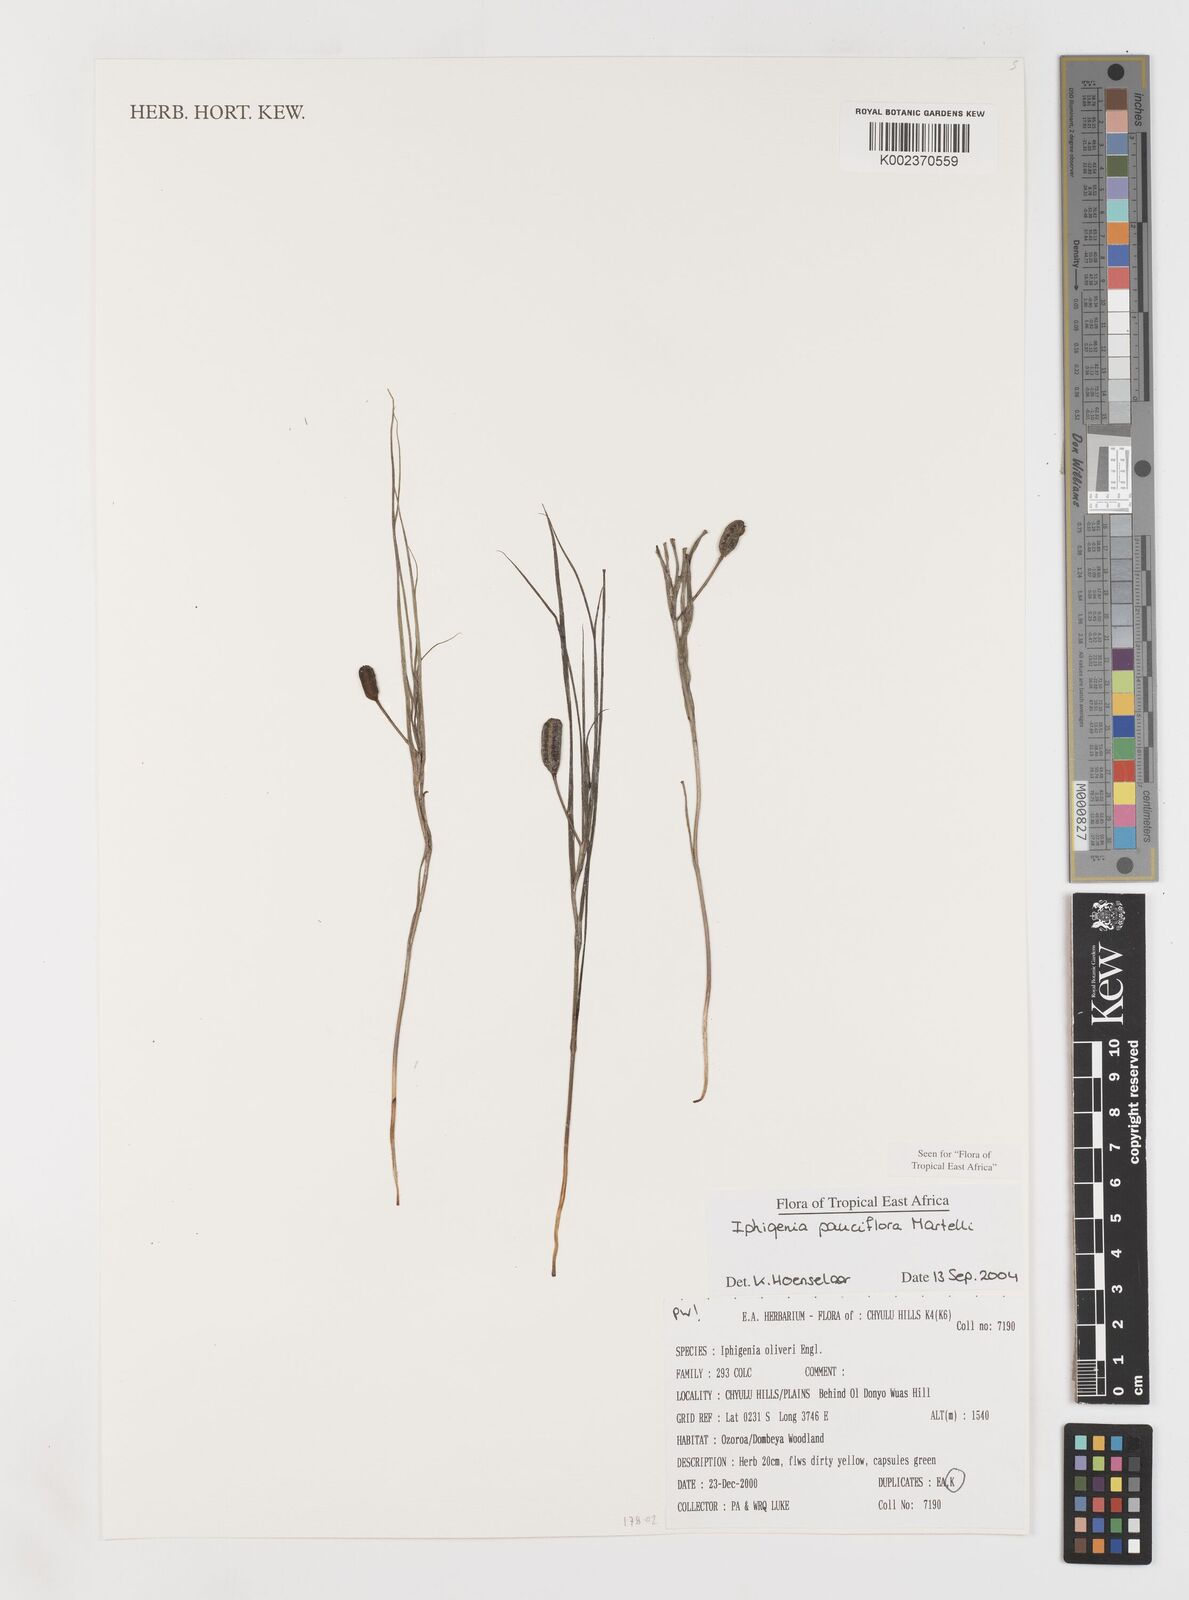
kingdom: Plantae
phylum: Tracheophyta
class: Liliopsida
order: Liliales
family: Colchicaceae
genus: Iphigenia
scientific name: Iphigenia pauciflora
